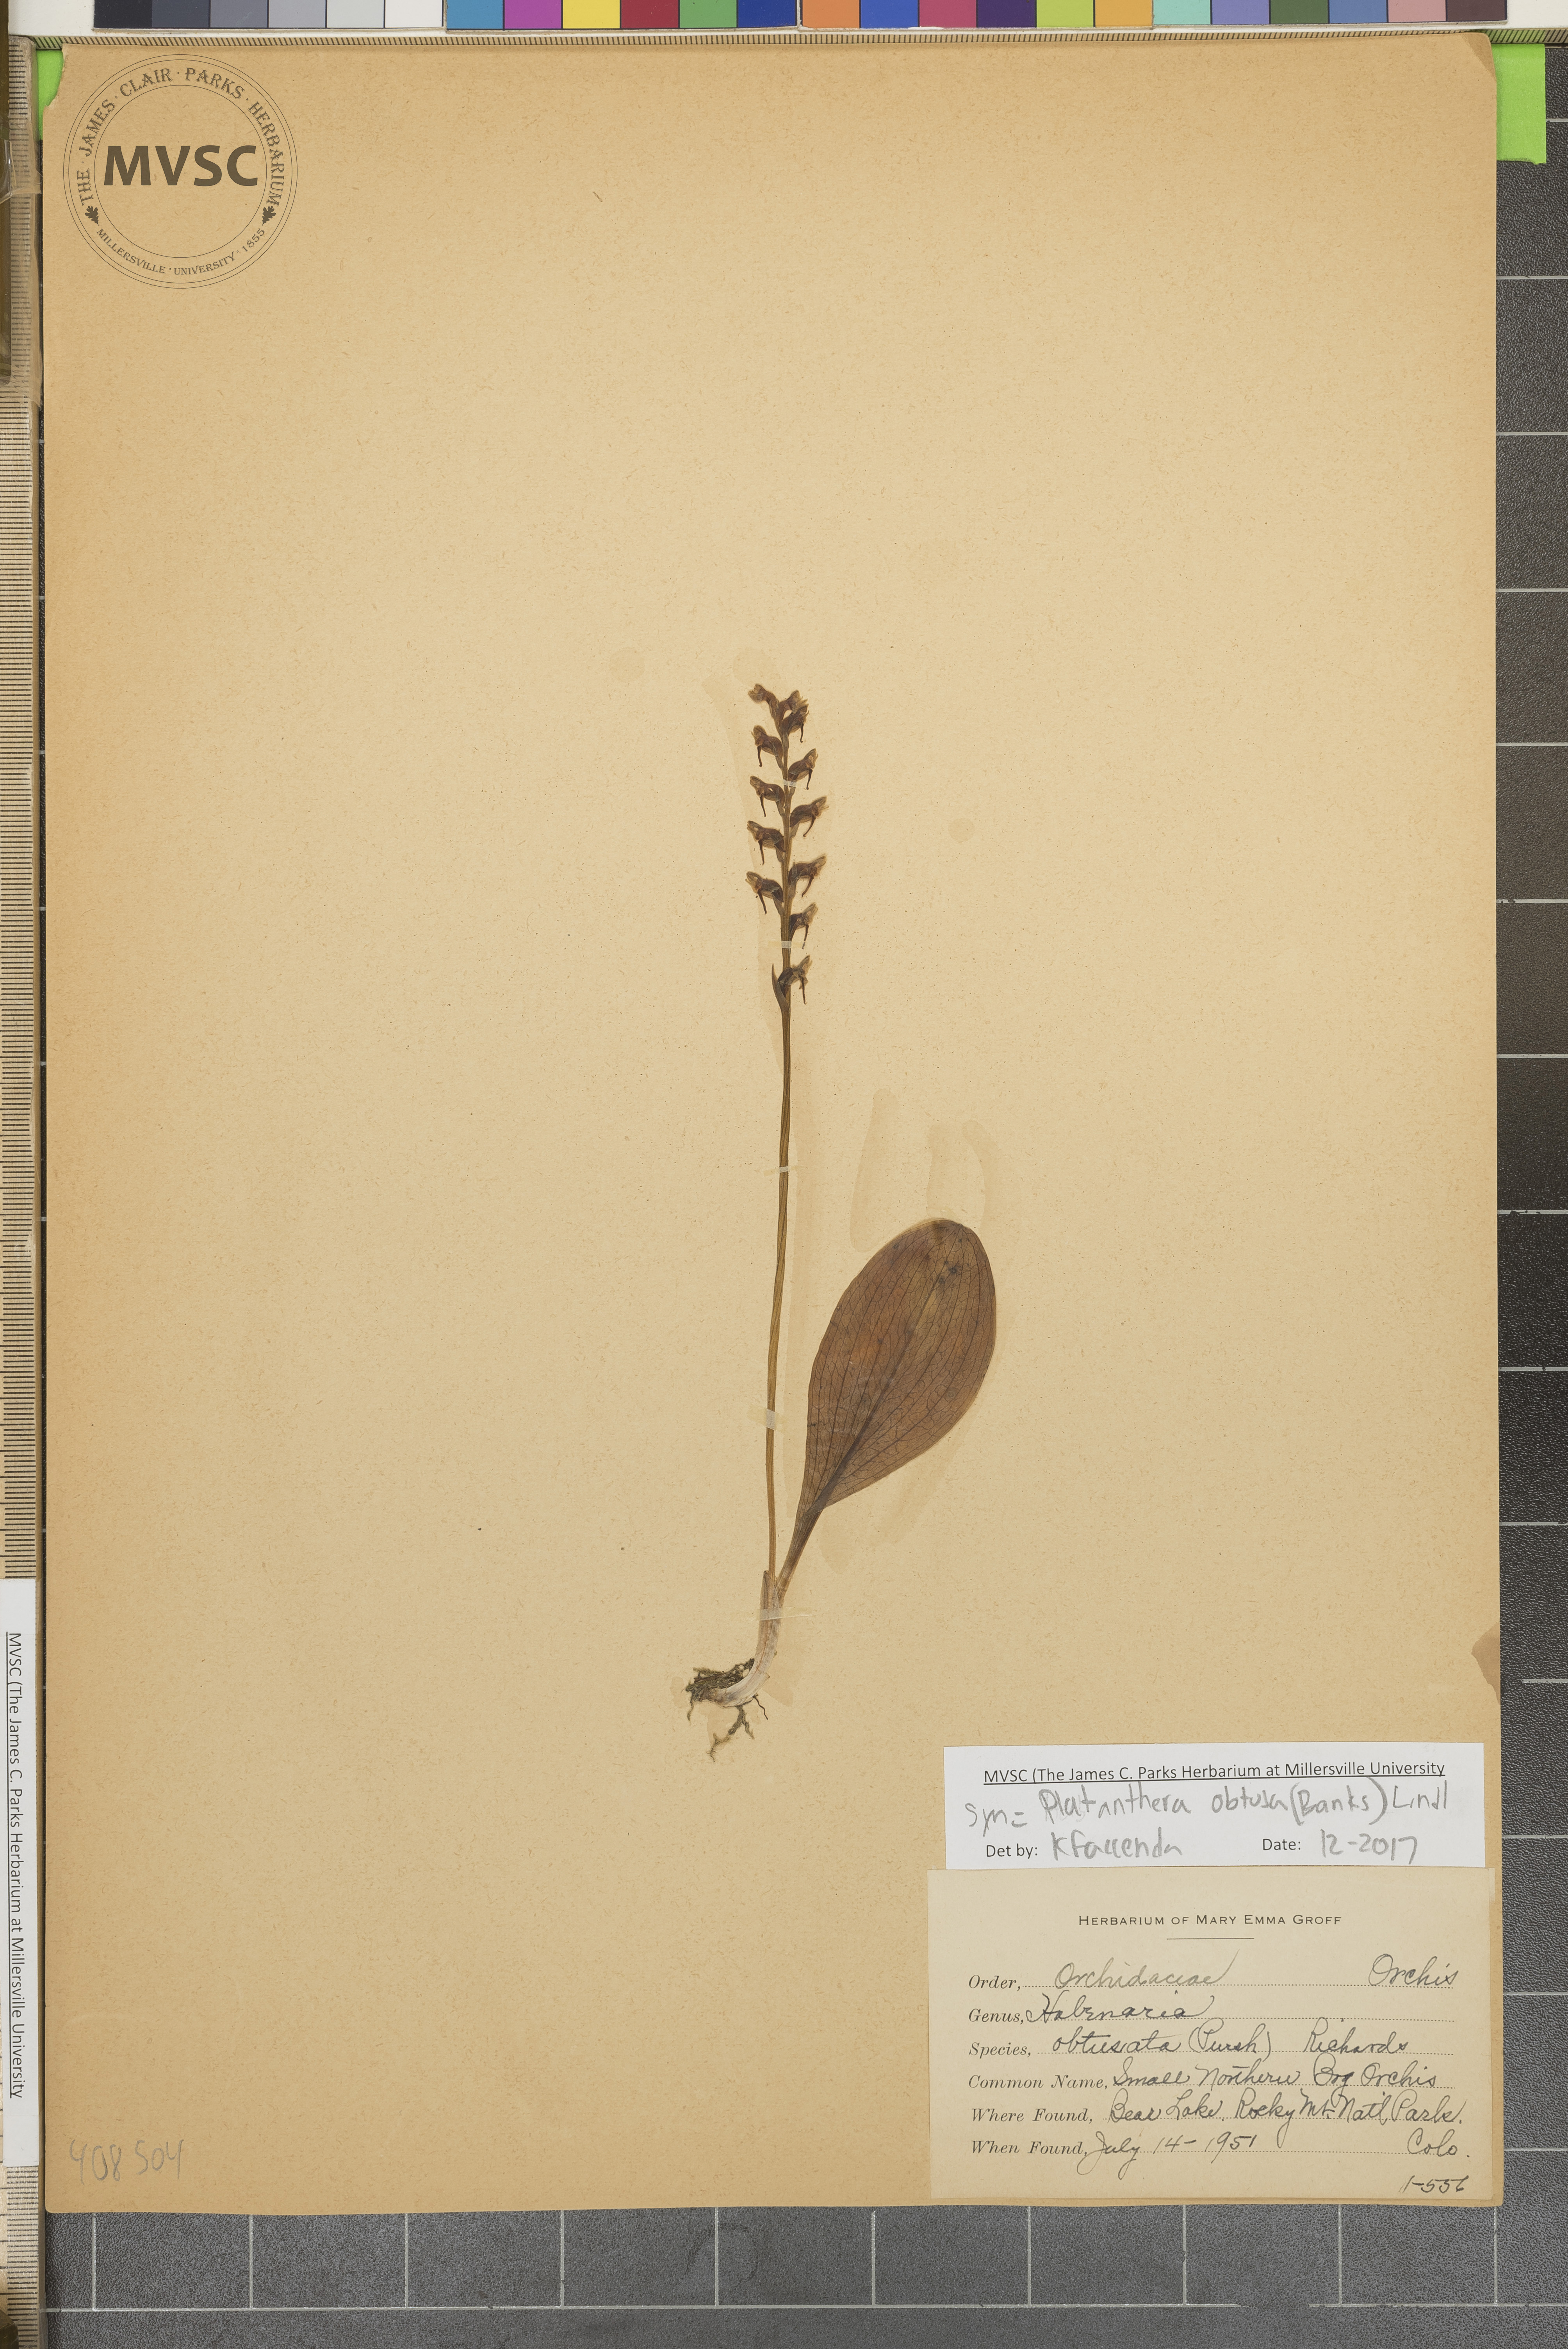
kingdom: Plantae
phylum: Tracheophyta
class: Liliopsida
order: Asparagales
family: Orchidaceae
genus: Platanthera
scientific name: Platanthera obtusata
